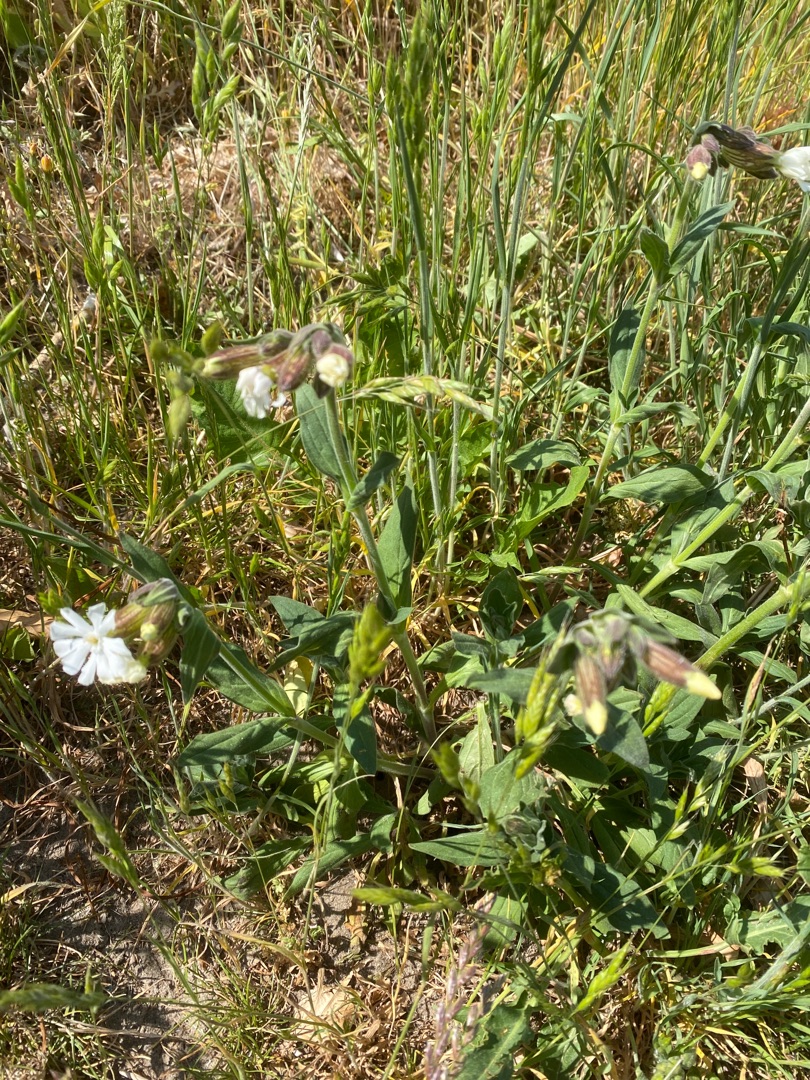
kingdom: Plantae
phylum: Tracheophyta
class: Magnoliopsida
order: Caryophyllales
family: Caryophyllaceae
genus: Silene
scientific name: Silene latifolia
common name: Aftenpragtstjerne
